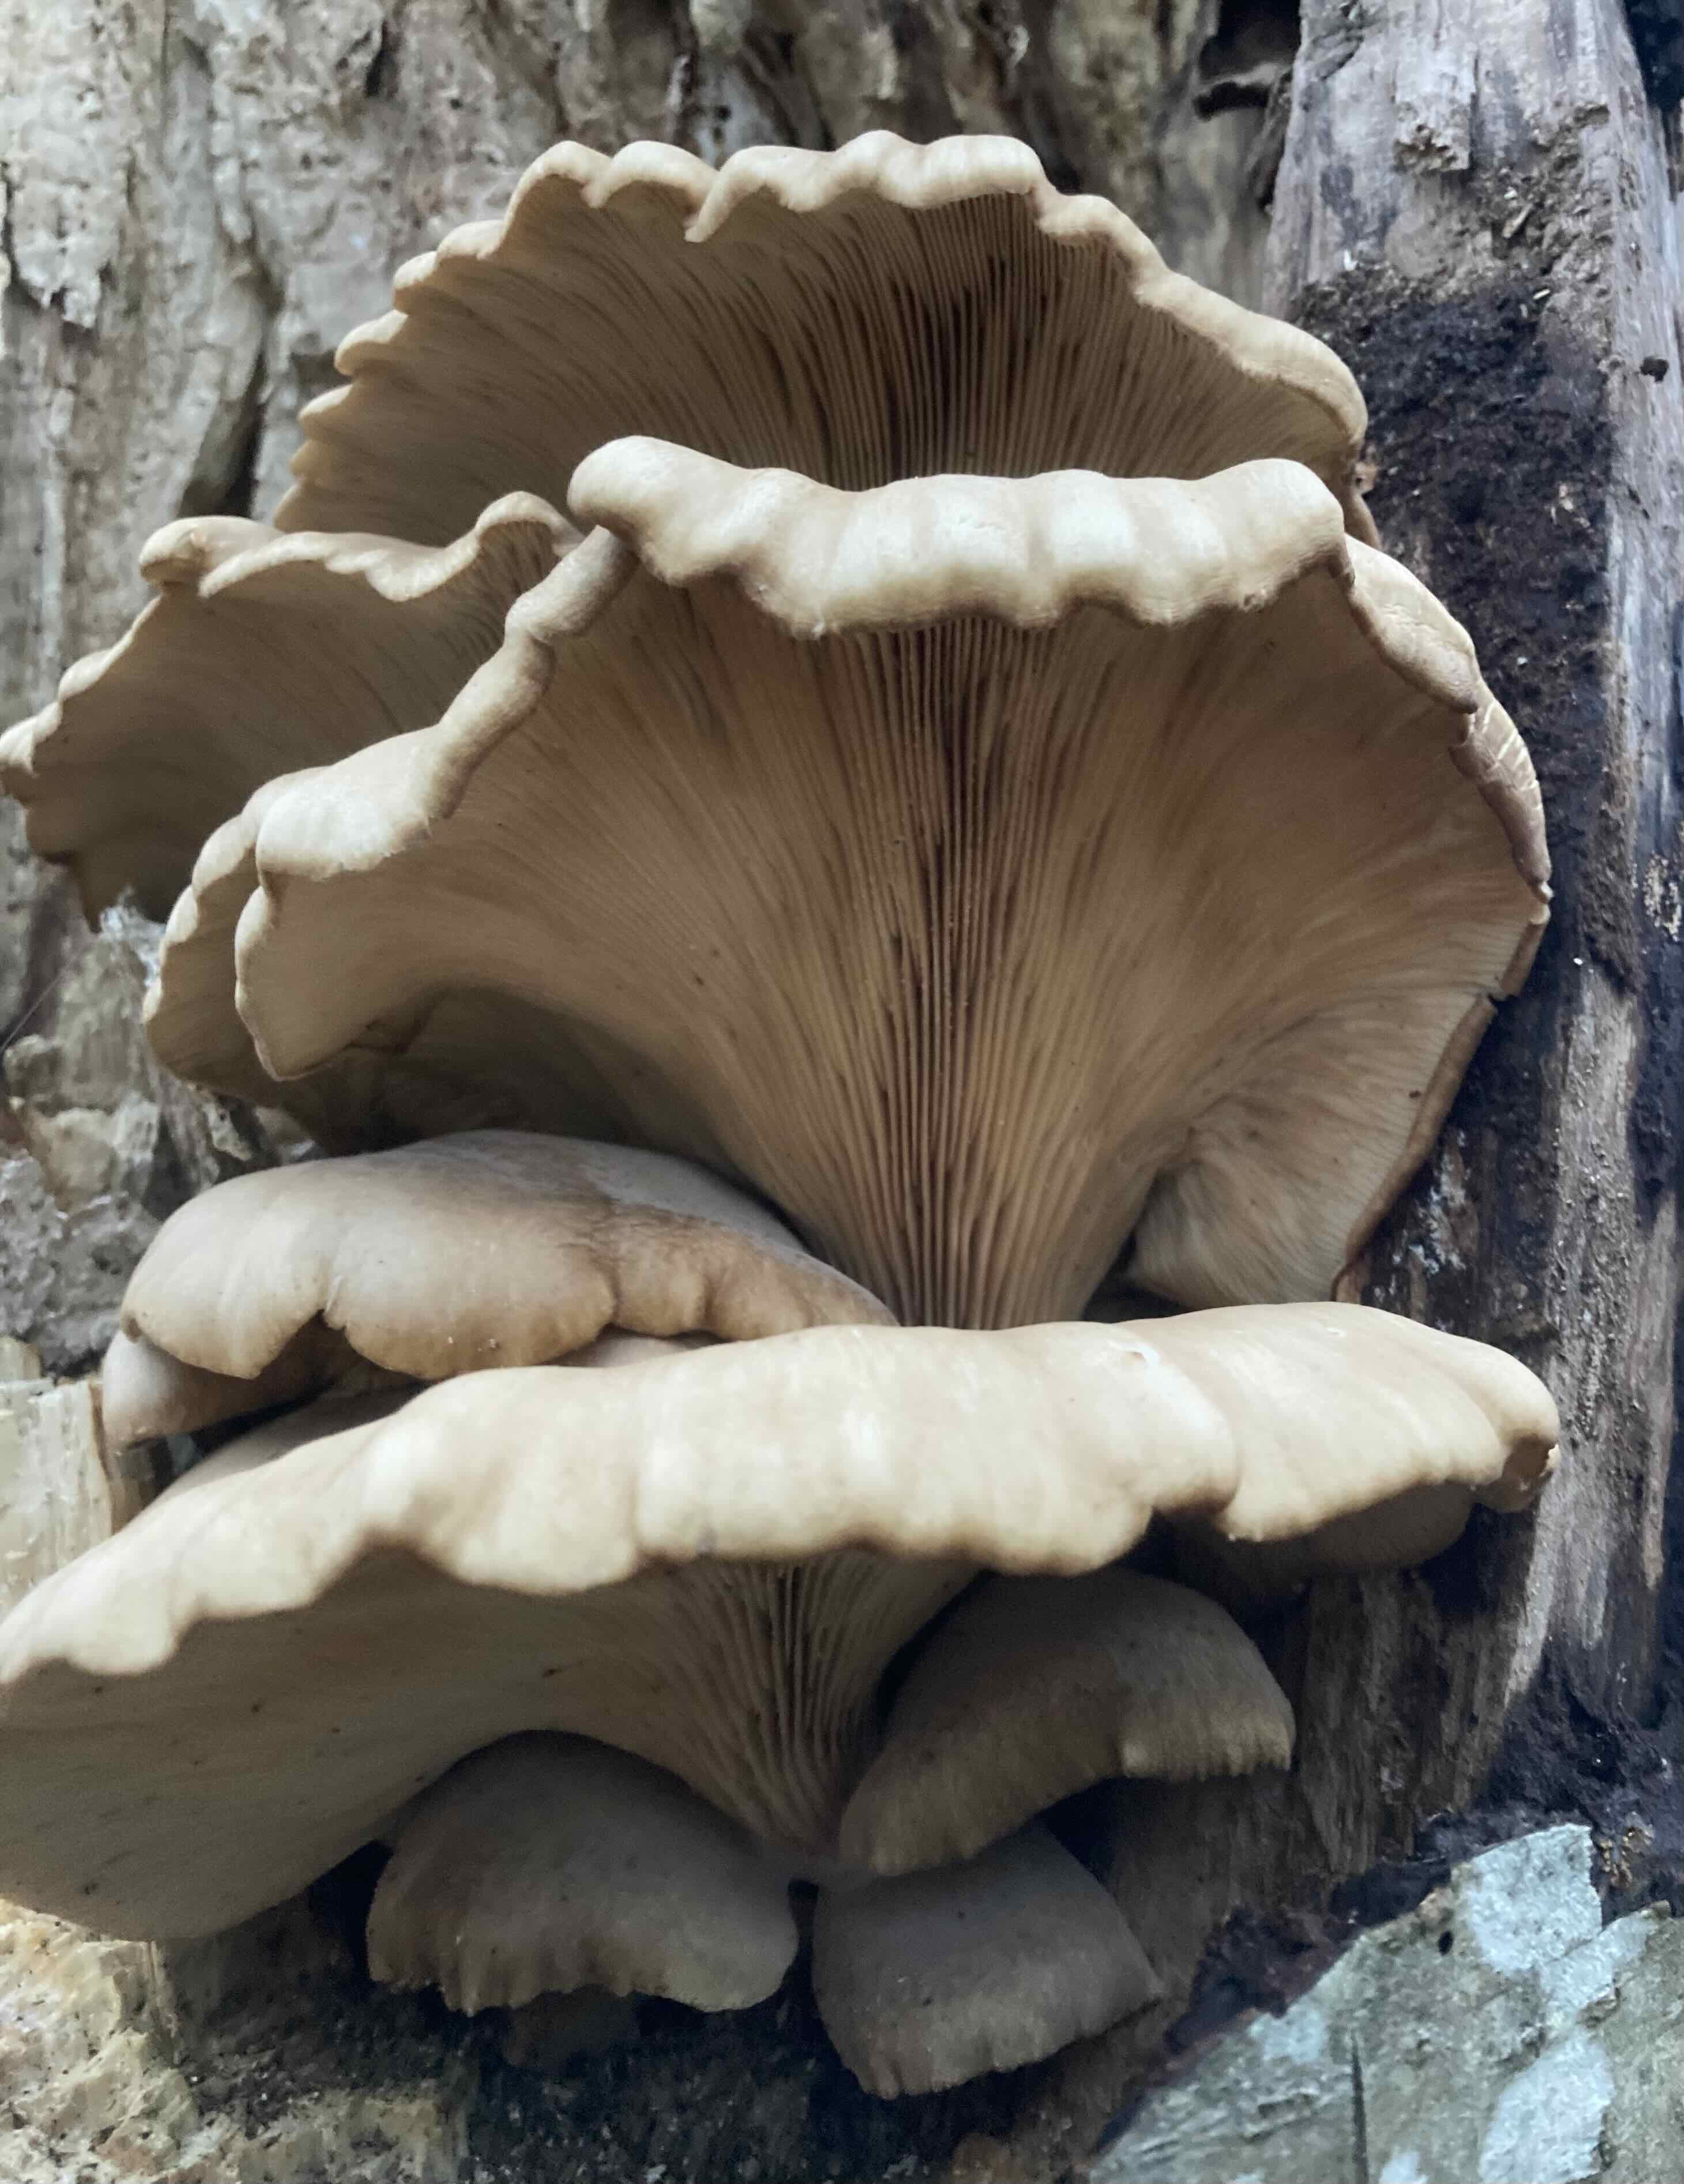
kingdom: Fungi
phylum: Basidiomycota
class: Agaricomycetes
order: Agaricales
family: Pleurotaceae
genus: Pleurotus
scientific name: Pleurotus ostreatus
